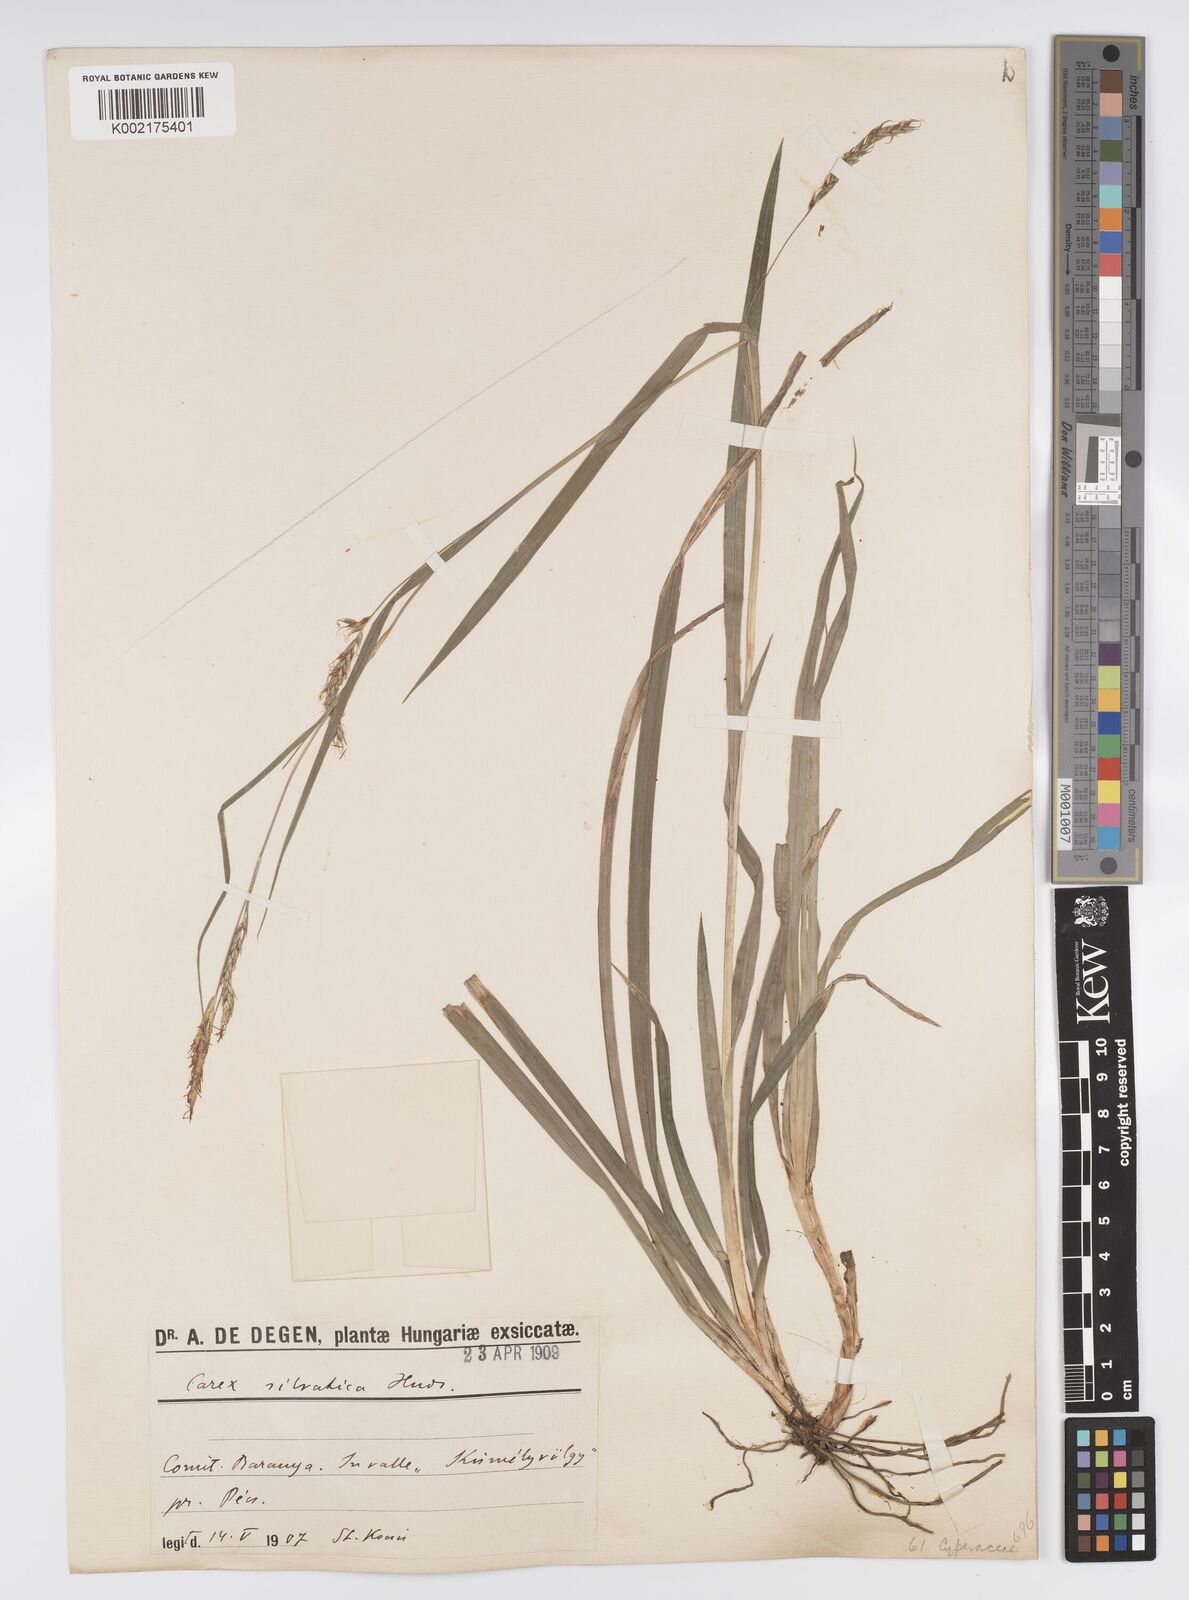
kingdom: Plantae
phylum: Tracheophyta
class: Liliopsida
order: Poales
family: Cyperaceae
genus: Carex
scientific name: Carex sylvatica
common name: Wood-sedge
